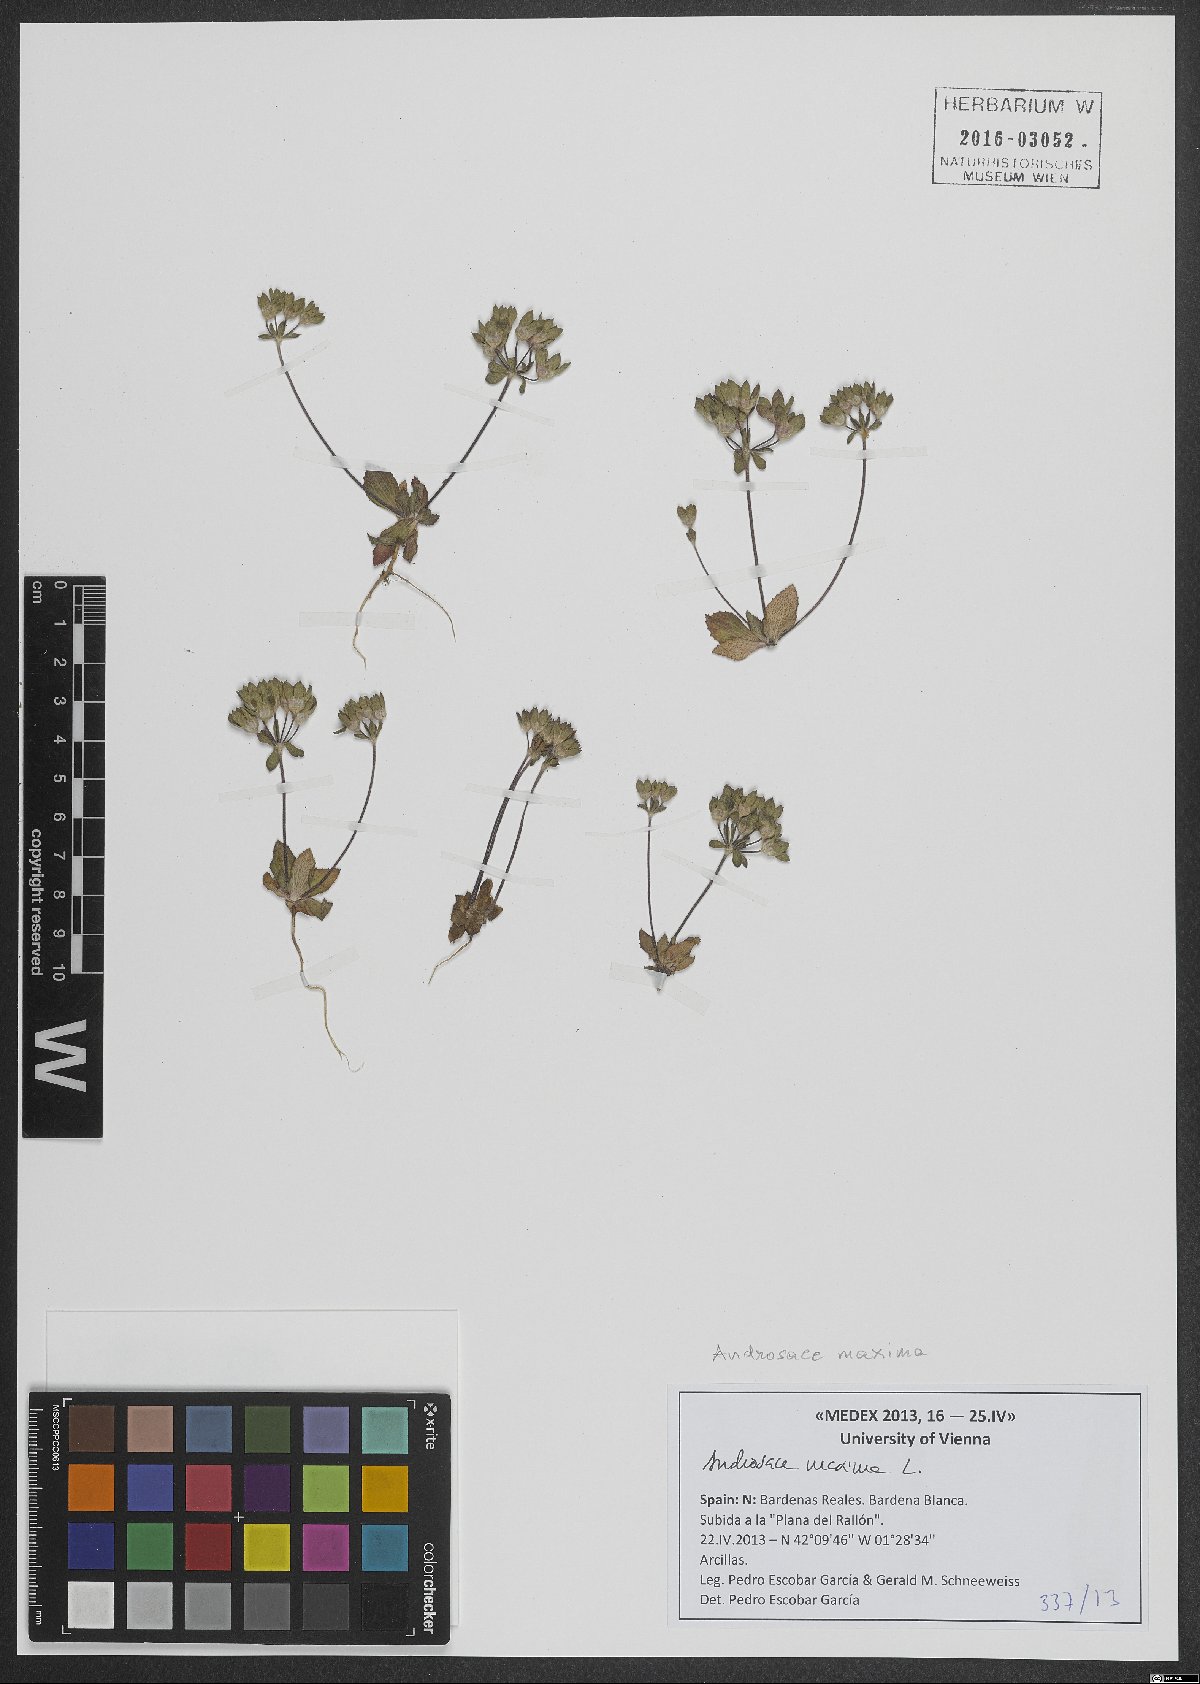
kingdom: Plantae
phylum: Tracheophyta
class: Magnoliopsida
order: Ericales
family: Primulaceae
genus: Androsace
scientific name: Androsace maxima
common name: Annual androsace
